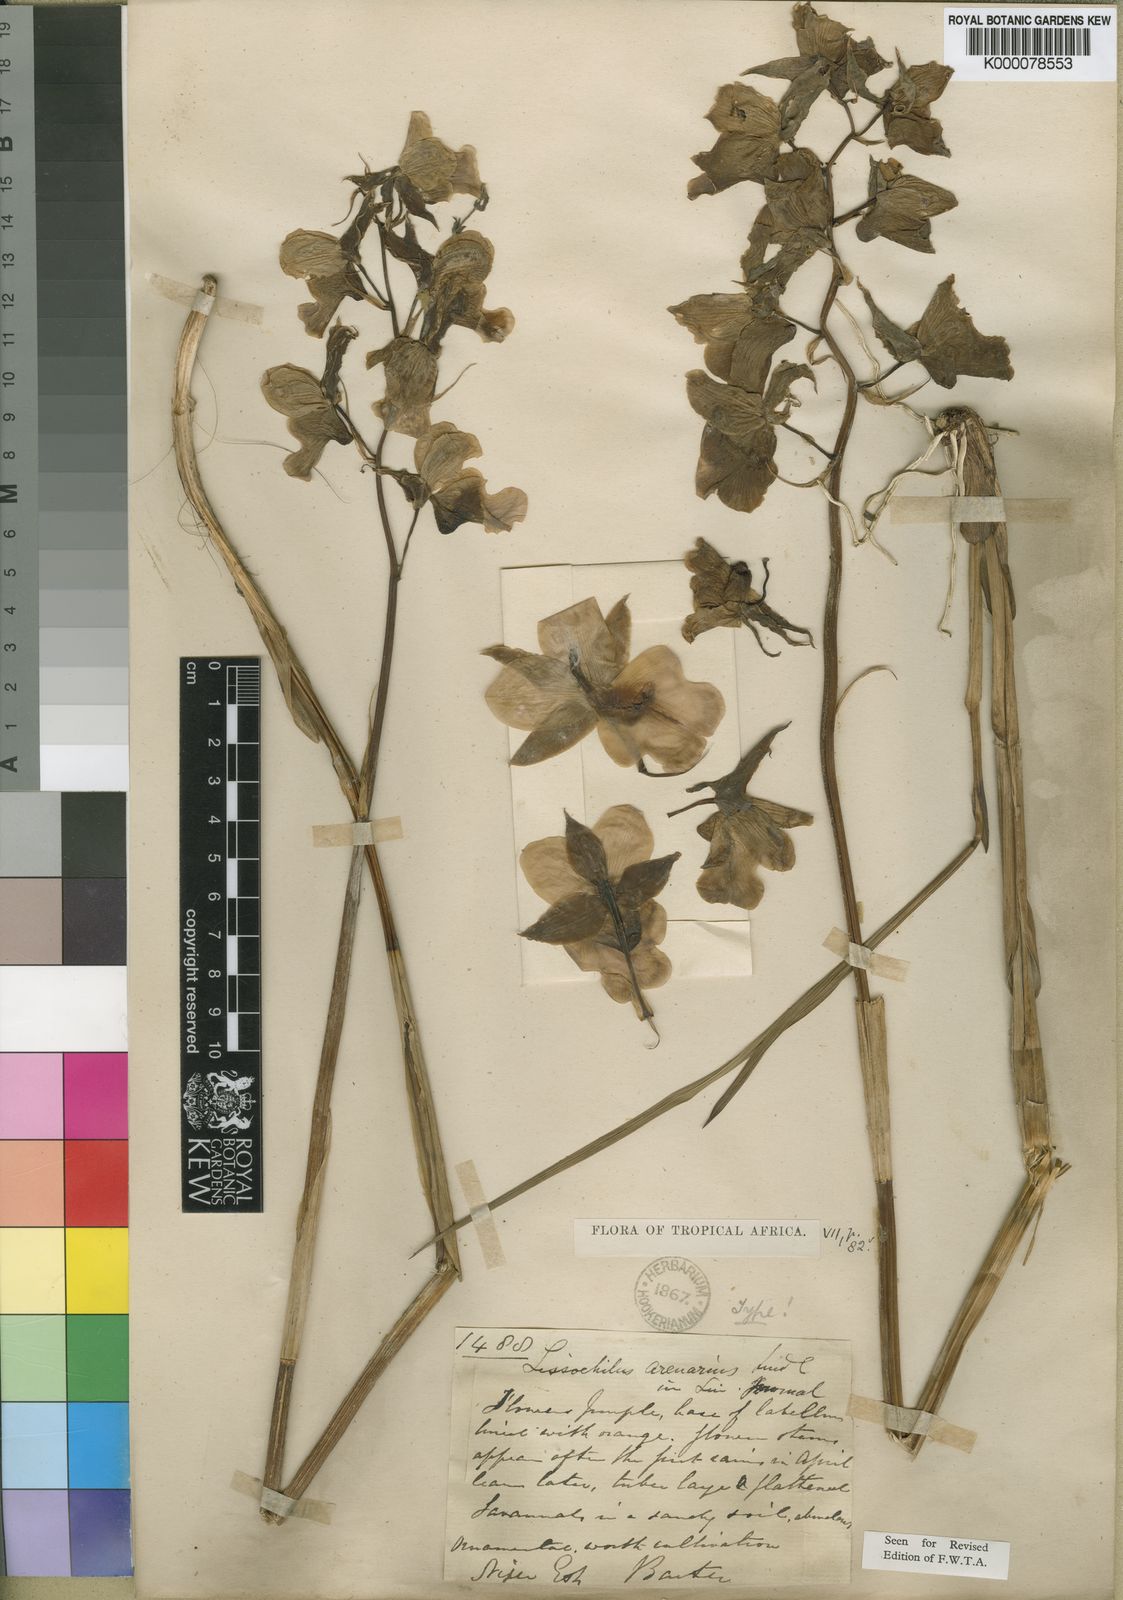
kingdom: Plantae
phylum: Tracheophyta
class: Liliopsida
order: Asparagales
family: Orchidaceae
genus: Eulophia
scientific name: Eulophia cucullata
